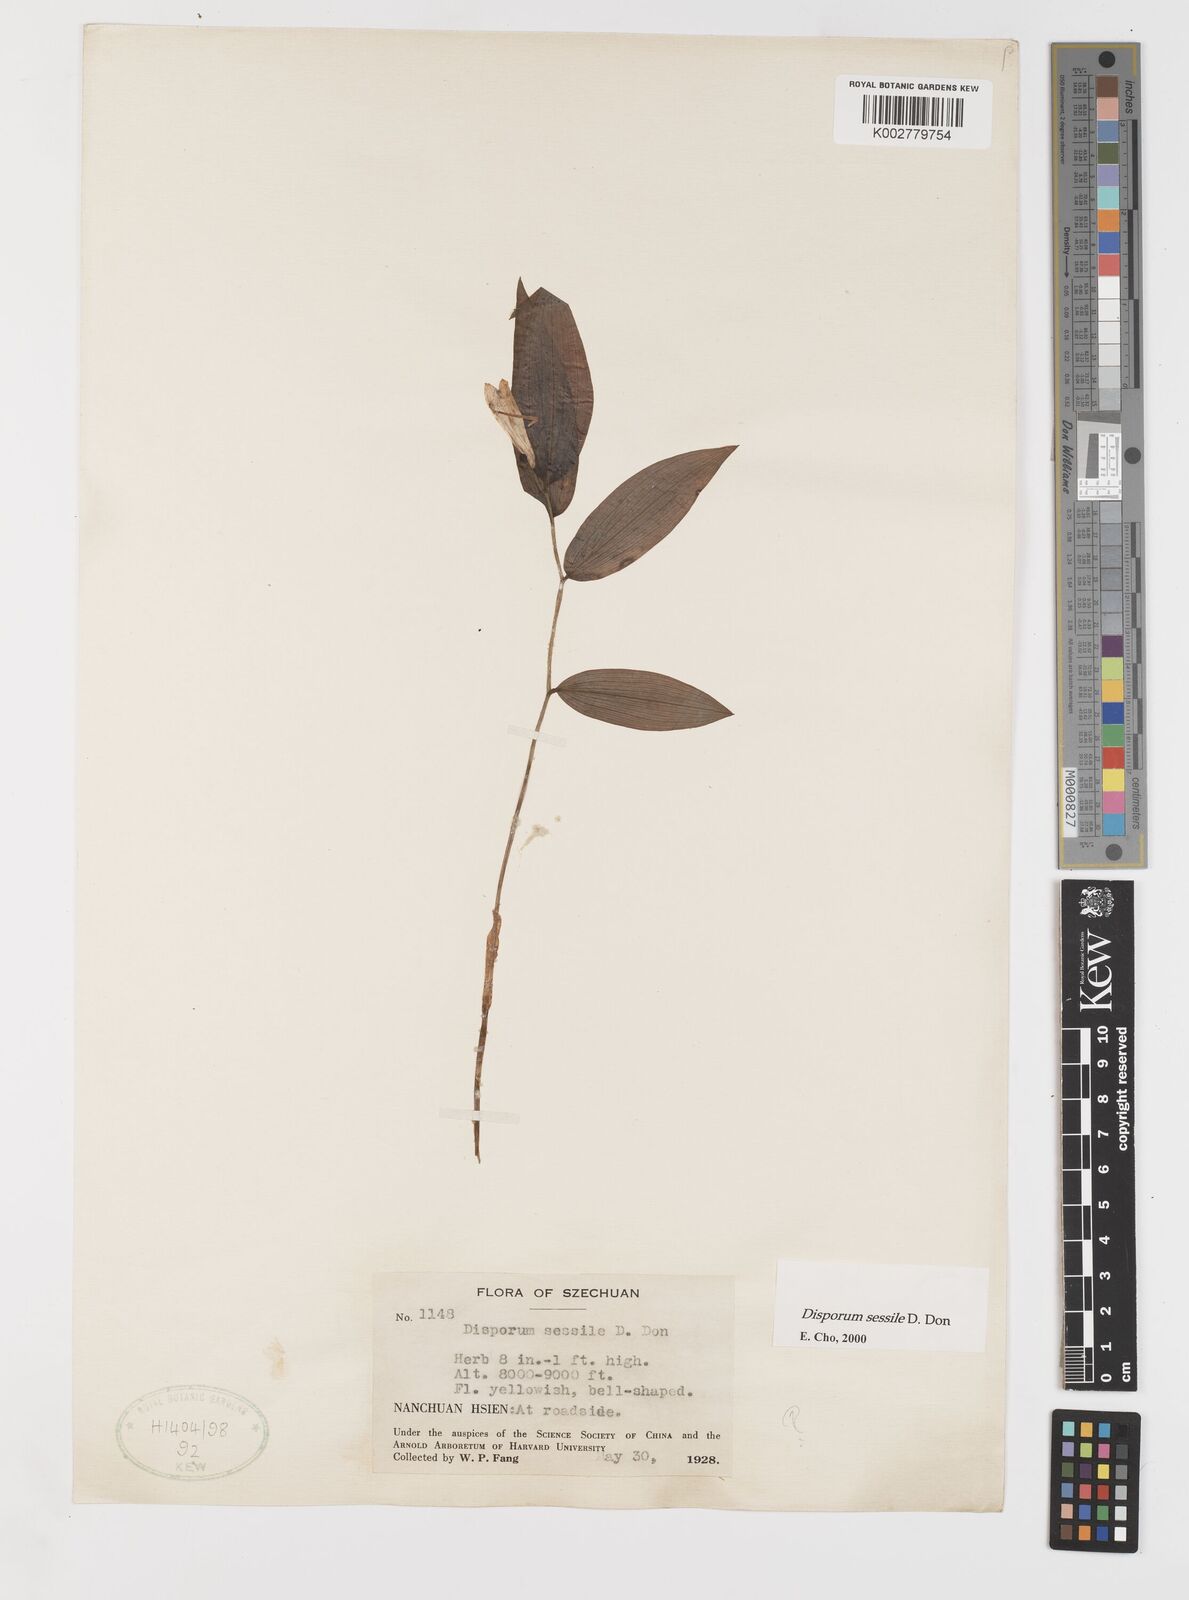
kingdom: Plantae
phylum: Tracheophyta
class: Liliopsida
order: Liliales
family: Colchicaceae
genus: Disporum
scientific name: Disporum sessile
